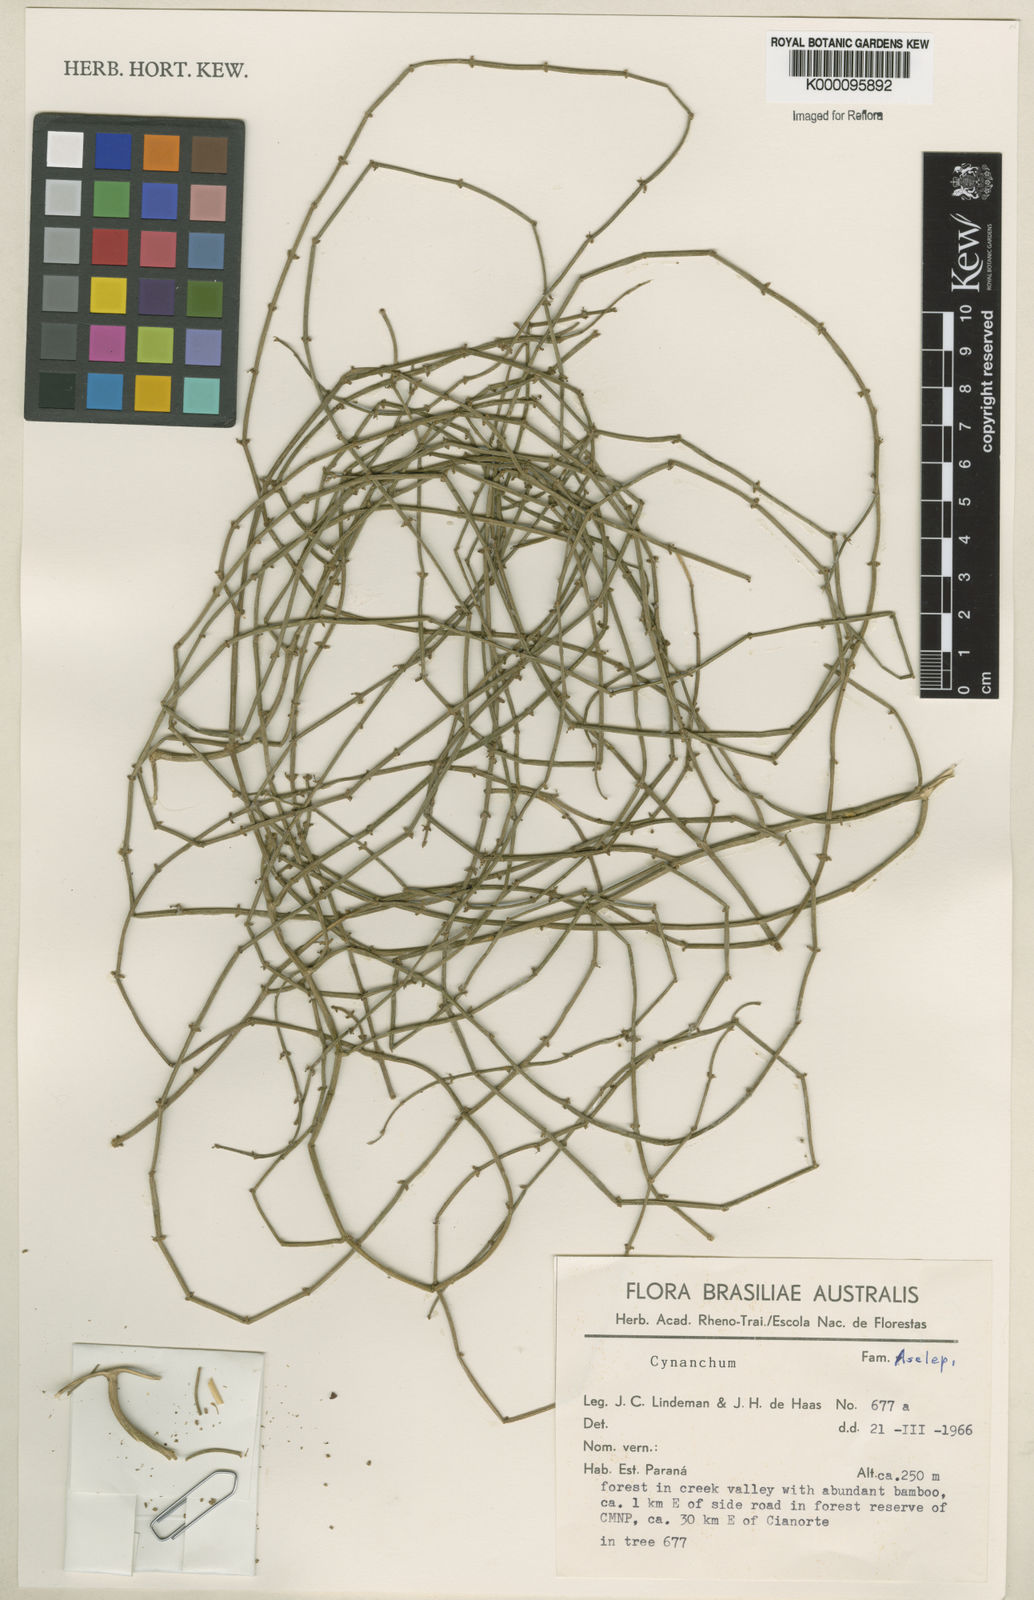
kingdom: Plantae
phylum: Tracheophyta
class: Magnoliopsida
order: Gentianales
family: Apocynaceae
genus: Orthosia
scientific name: Orthosia scoparia
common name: Leafless swallow-wort
